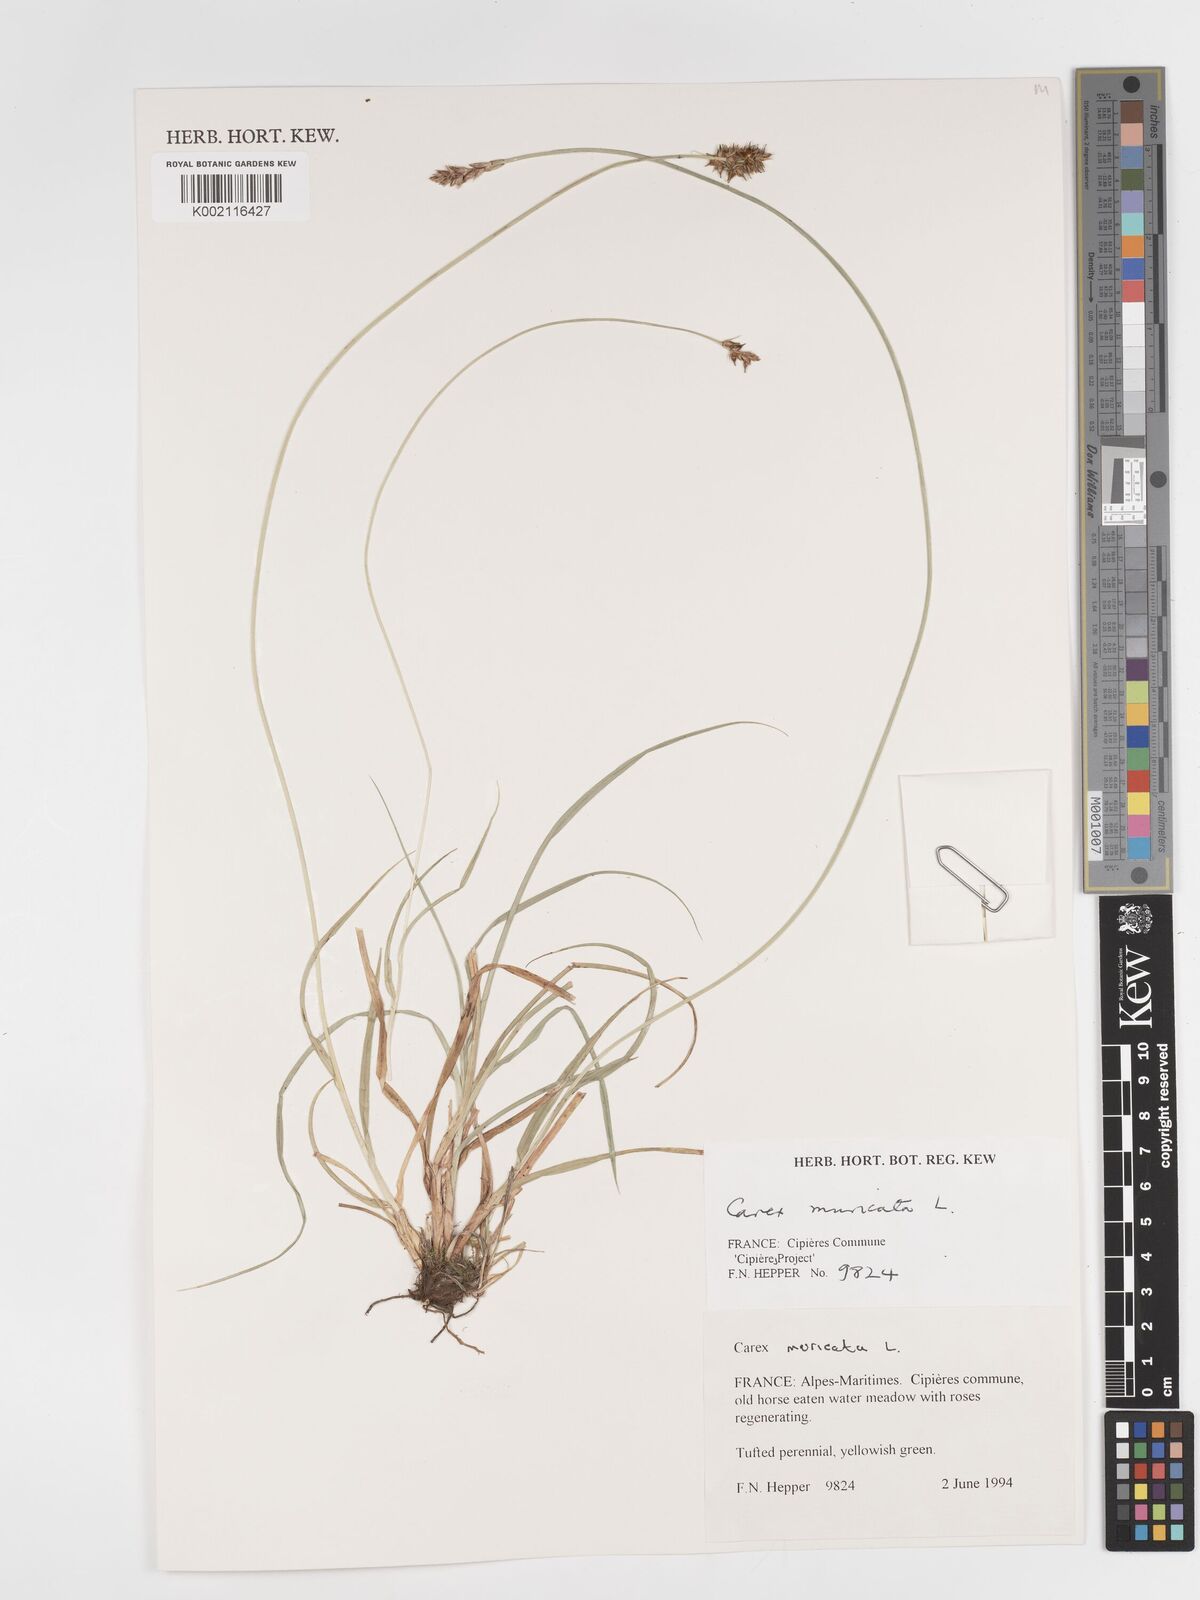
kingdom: Plantae
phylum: Tracheophyta
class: Liliopsida
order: Poales
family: Cyperaceae
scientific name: Cyperaceae
